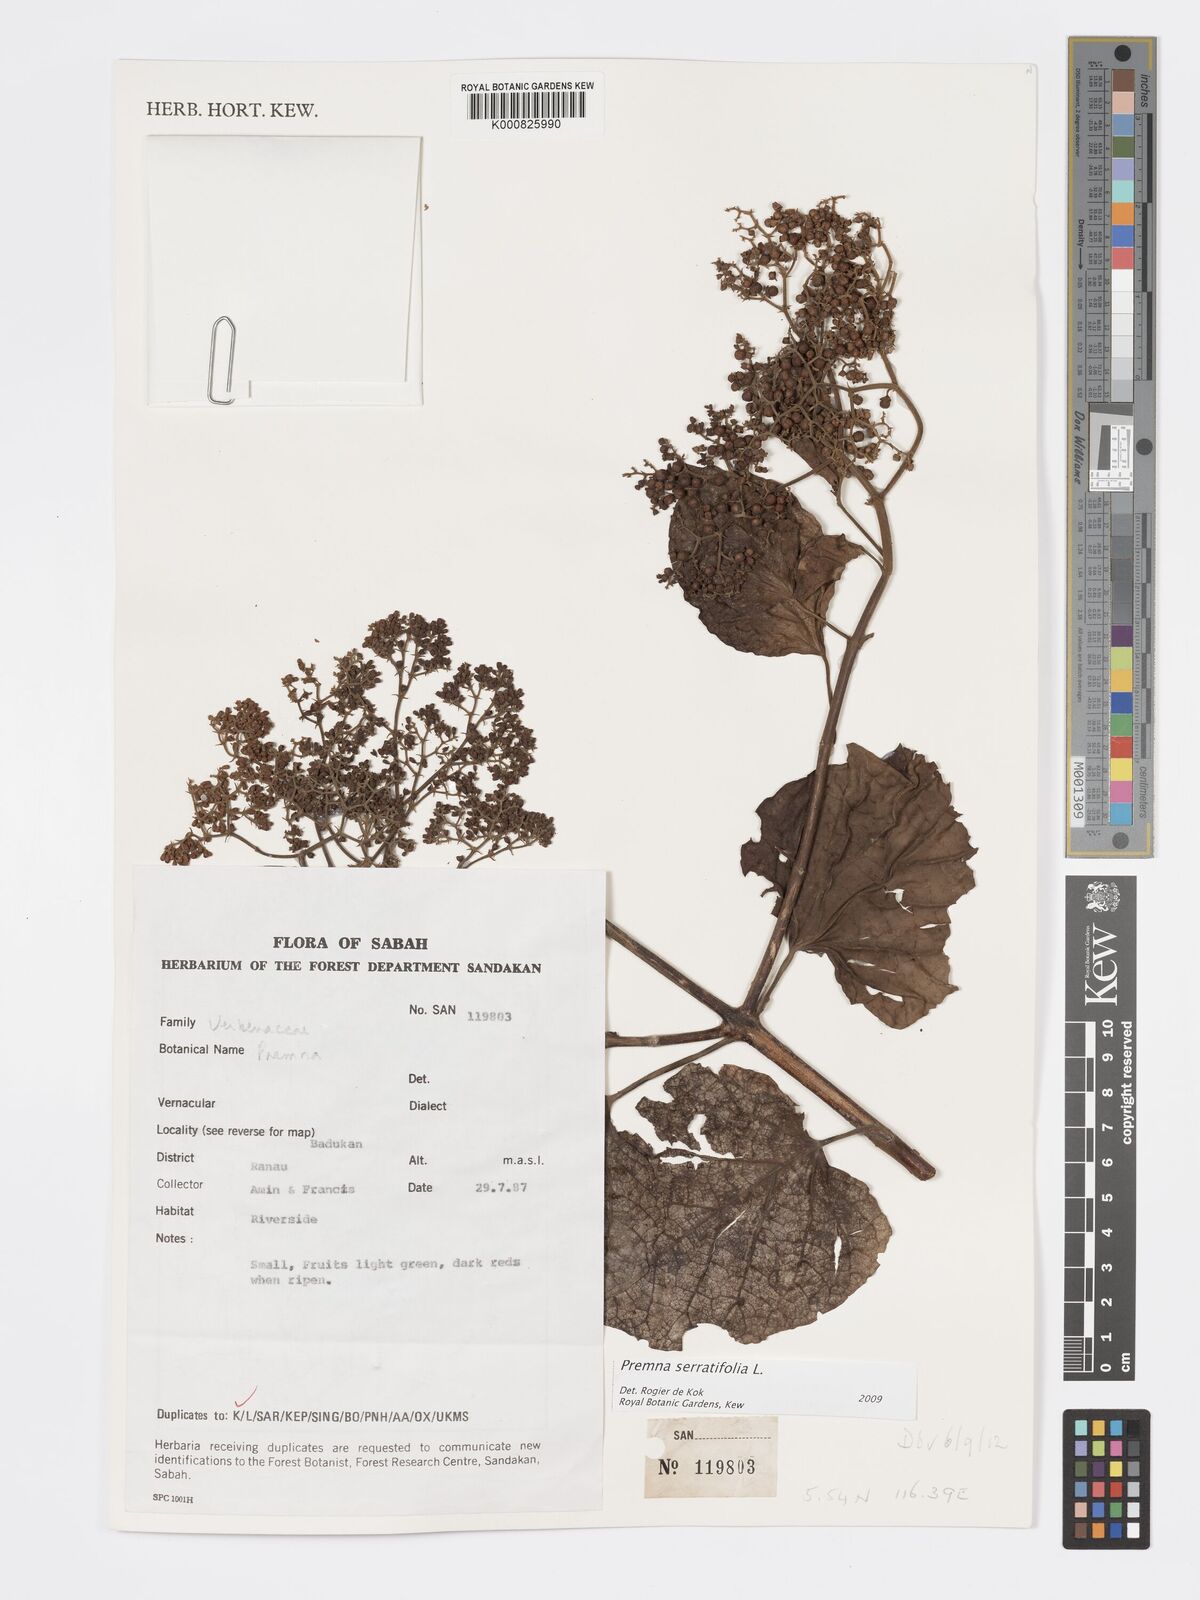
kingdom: Plantae
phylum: Tracheophyta
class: Magnoliopsida
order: Lamiales
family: Lamiaceae
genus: Premna
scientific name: Premna serratifolia
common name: Bastard guelder
